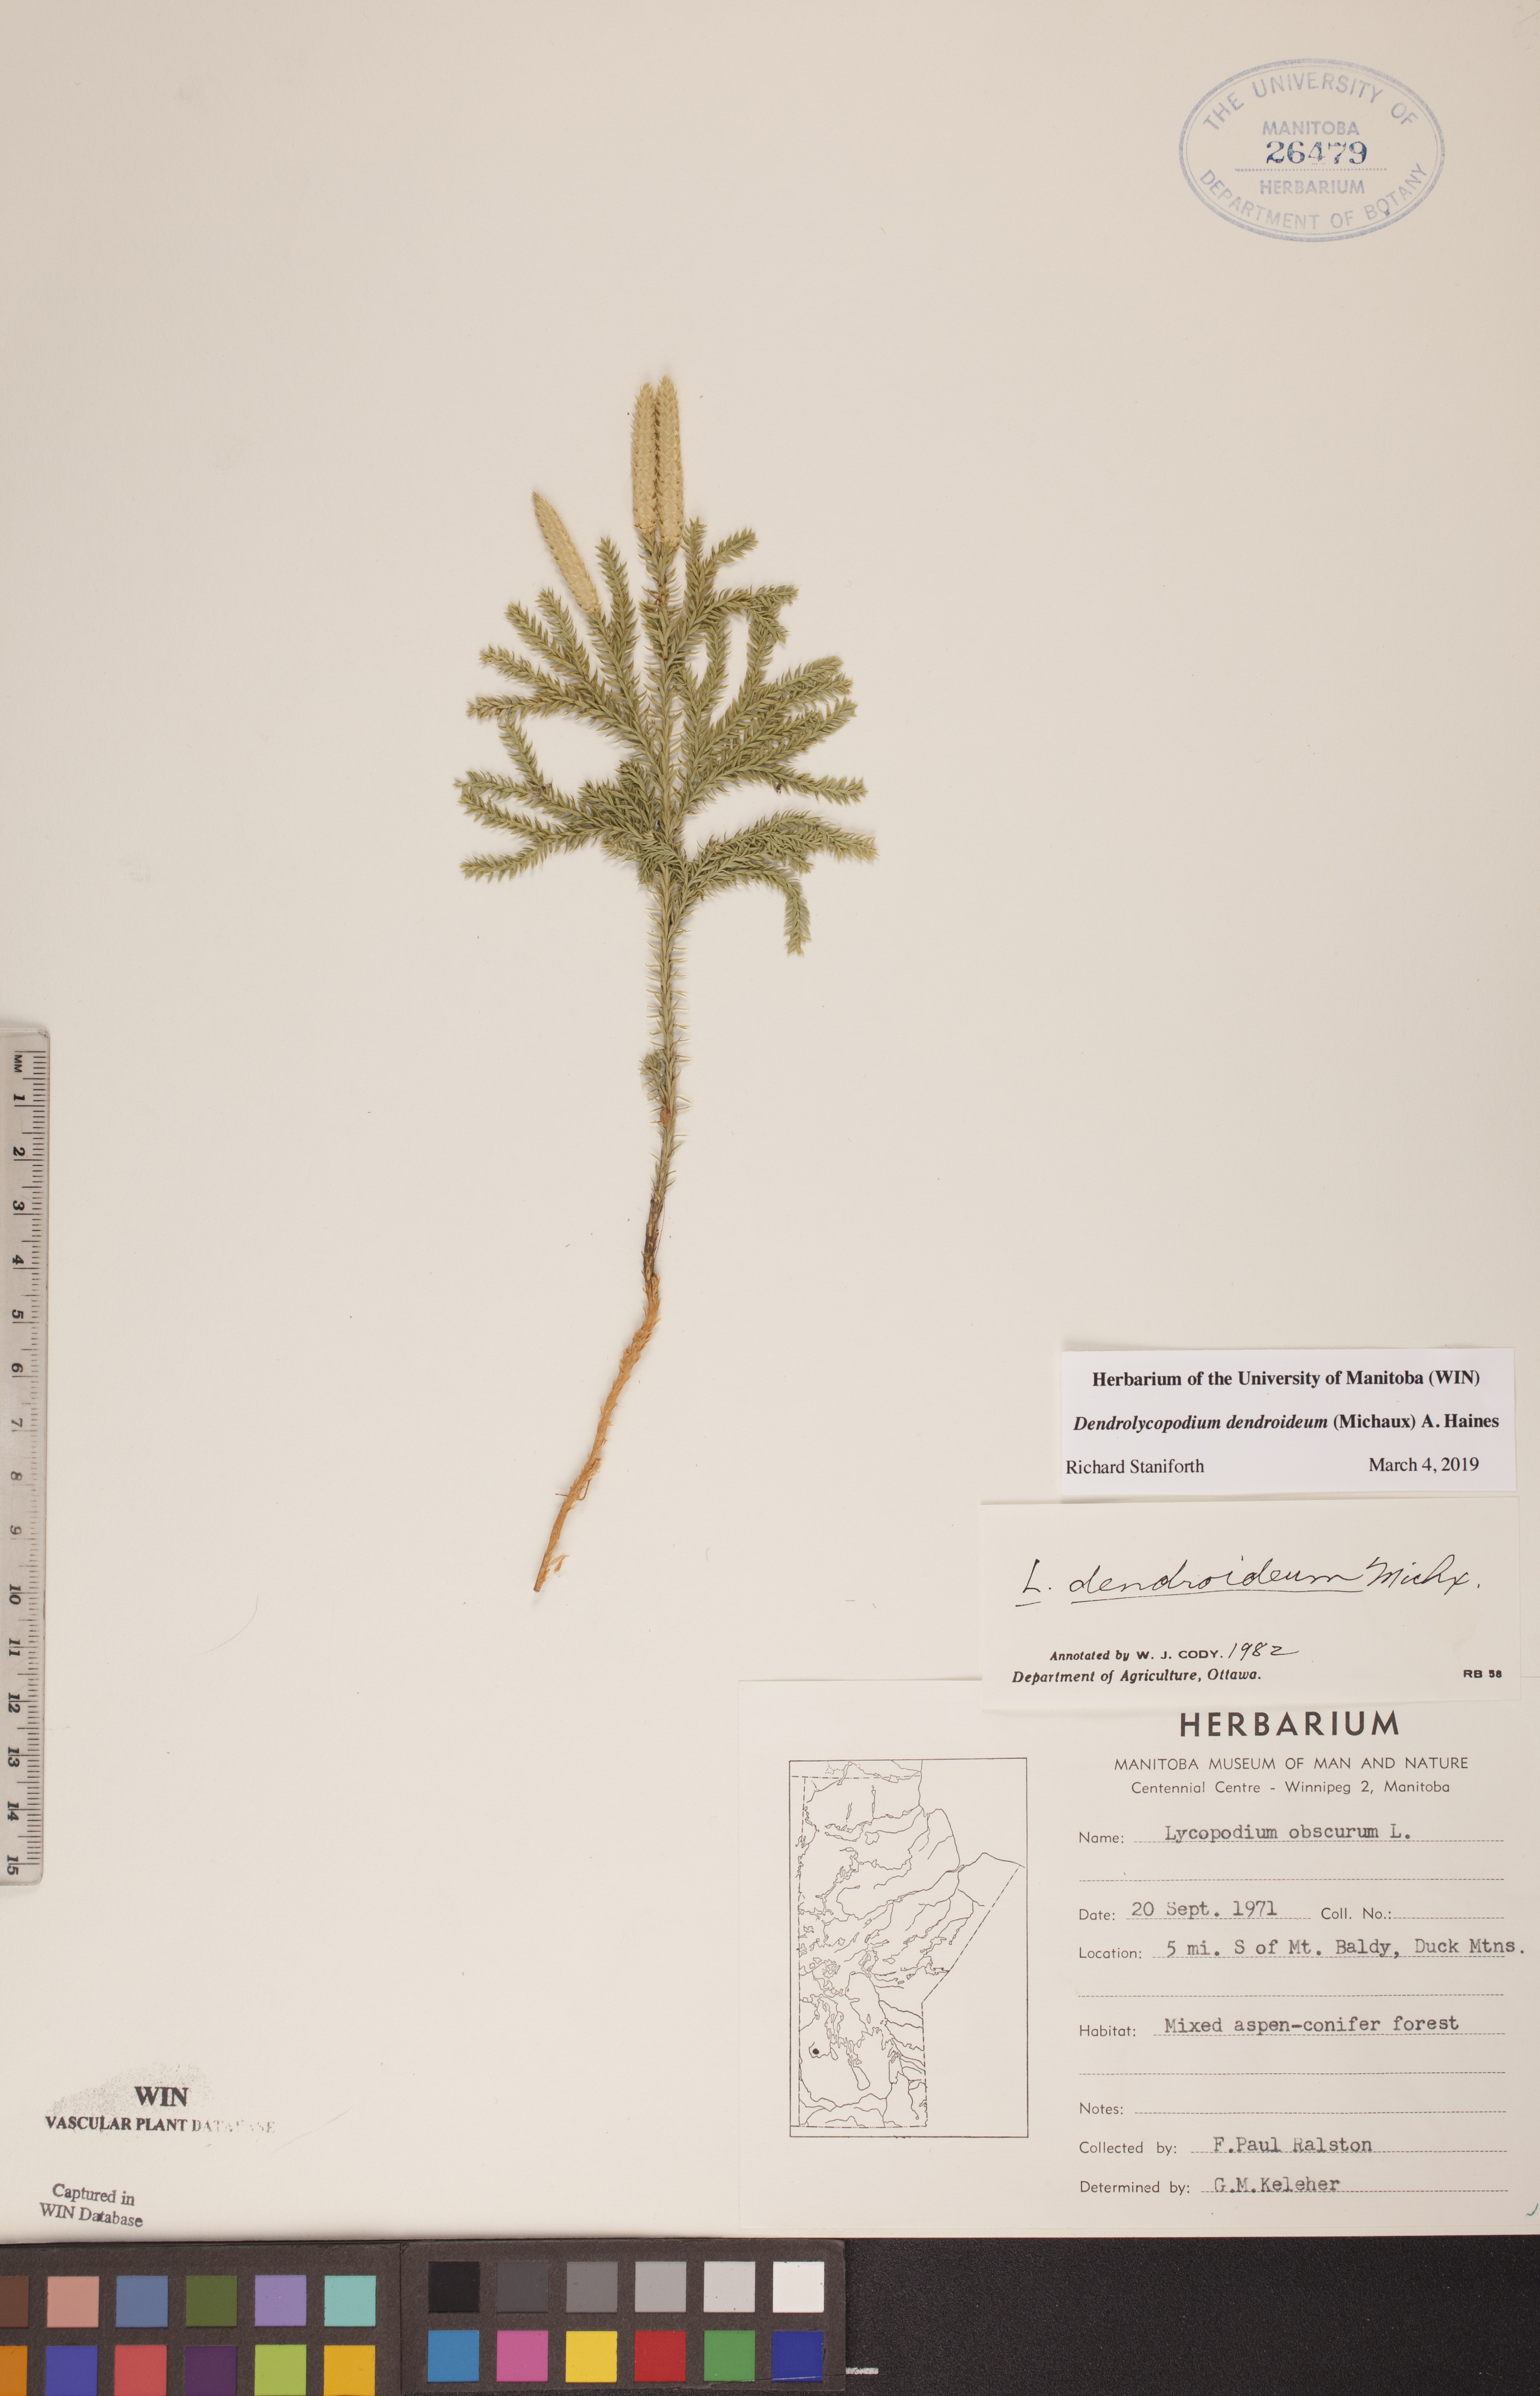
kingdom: Plantae
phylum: Tracheophyta
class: Lycopodiopsida
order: Lycopodiales
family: Lycopodiaceae
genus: Dendrolycopodium
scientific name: Dendrolycopodium dendroideum
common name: Northern tree-clubmoss
